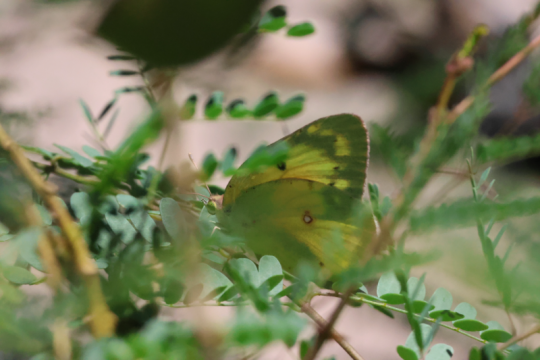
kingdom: Animalia
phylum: Arthropoda
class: Insecta
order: Lepidoptera
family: Pieridae
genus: Colias
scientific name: Colias eurytheme
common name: Orange Sulphur
